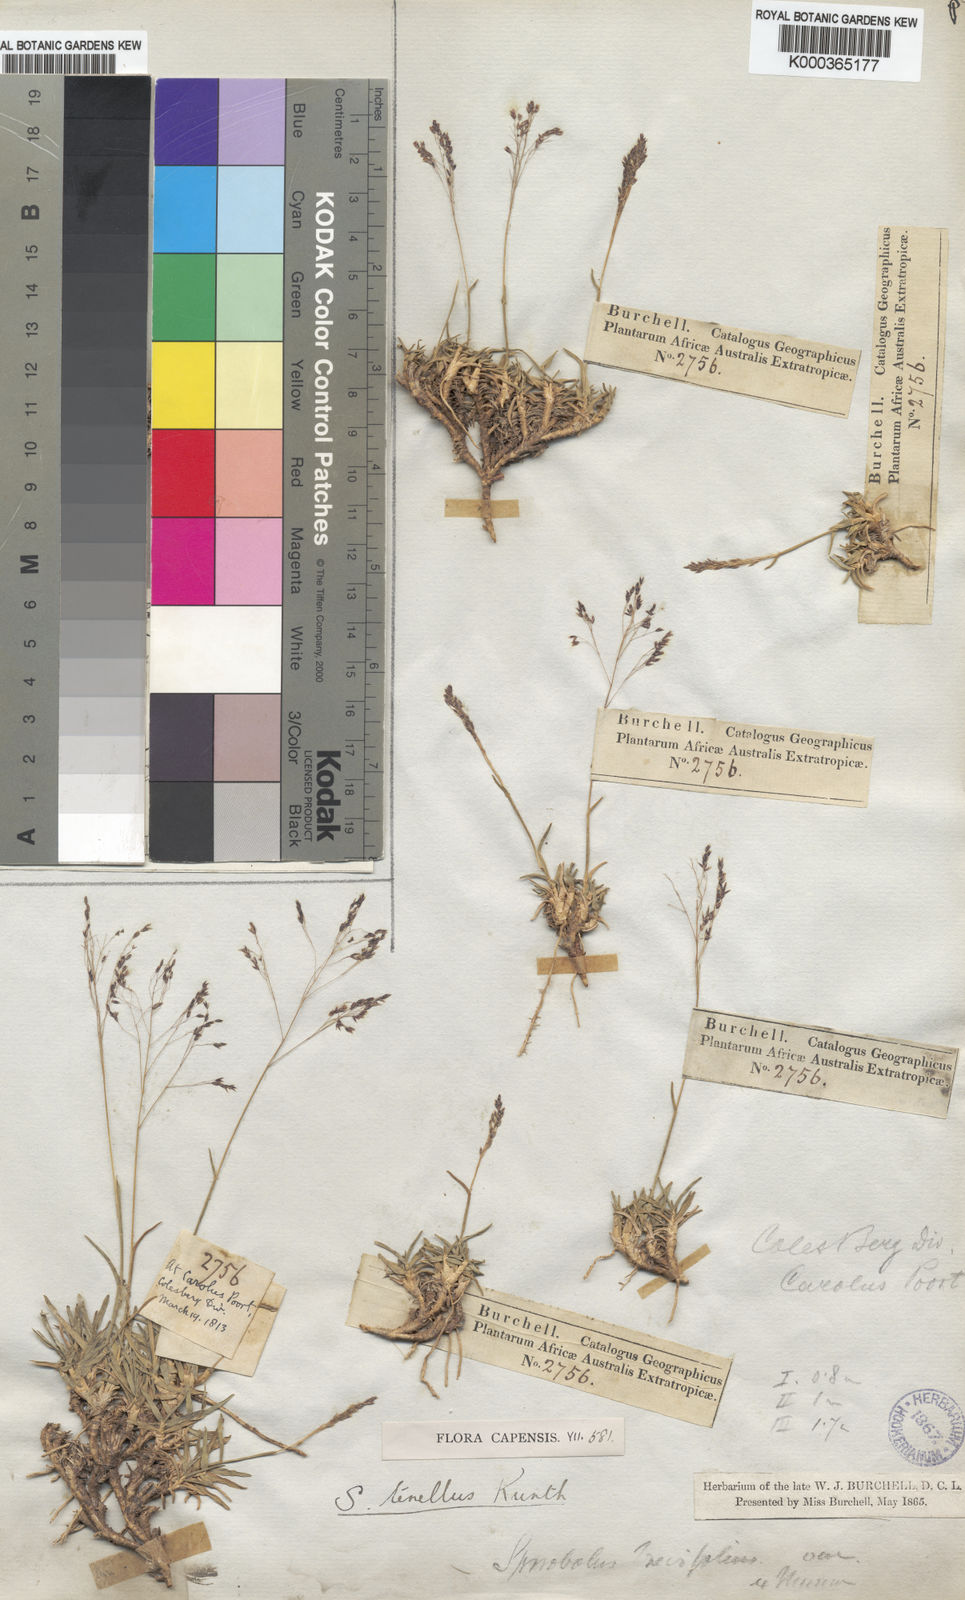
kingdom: Plantae
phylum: Tracheophyta
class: Liliopsida
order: Poales
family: Poaceae
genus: Sporobolus
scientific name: Sporobolus tenellus
